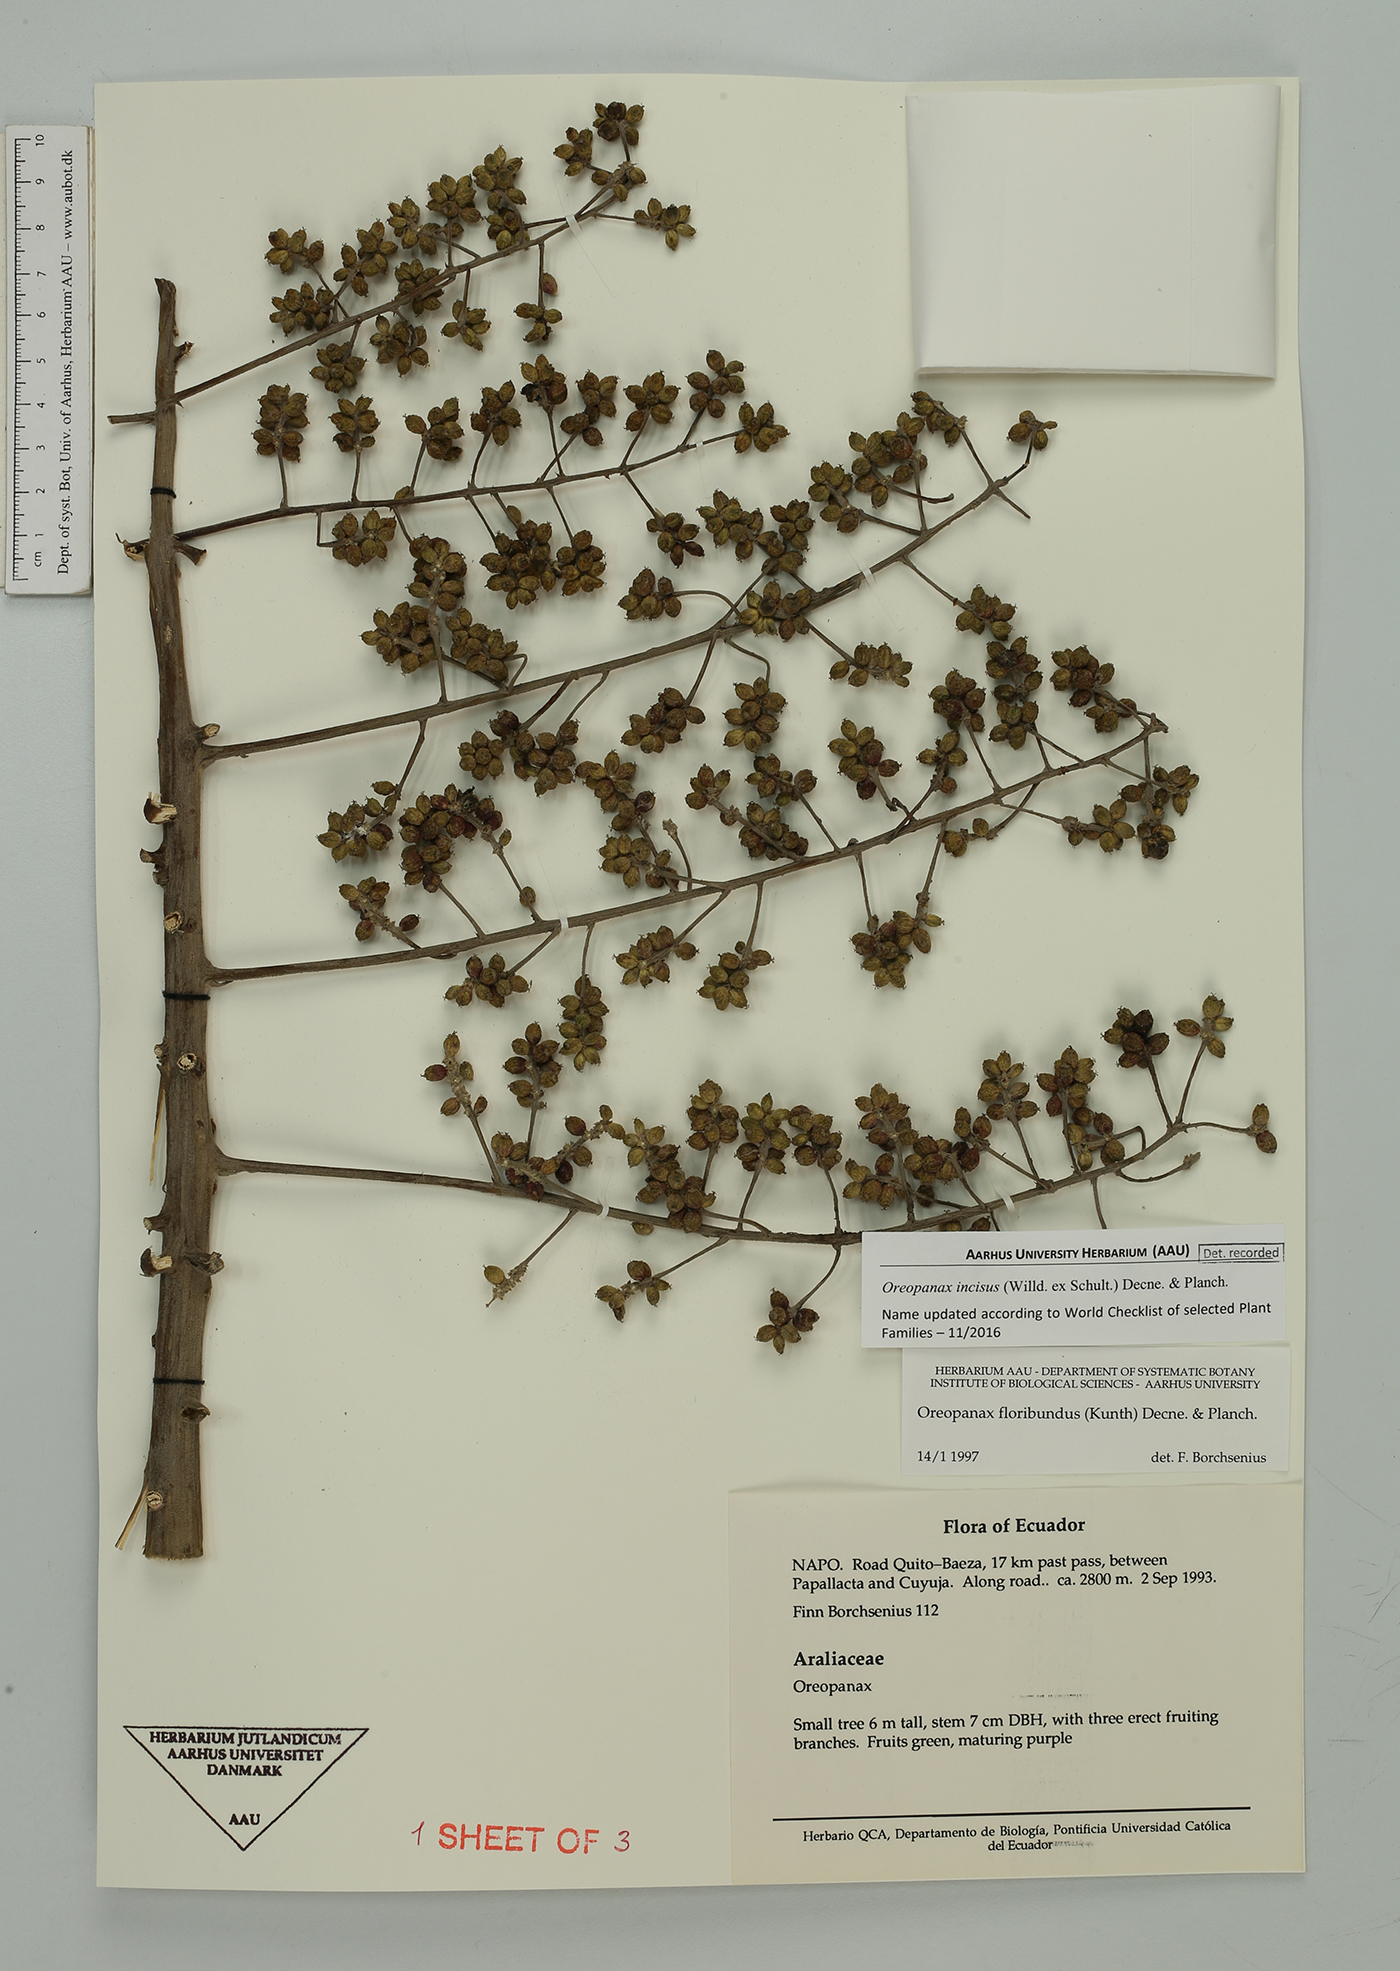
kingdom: Plantae
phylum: Tracheophyta
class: Magnoliopsida
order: Apiales
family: Araliaceae
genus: Oreopanax
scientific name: Oreopanax incisus
